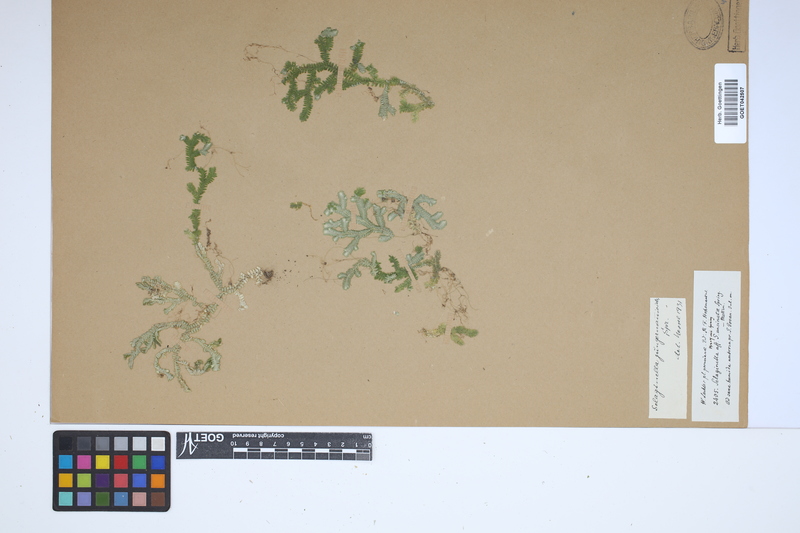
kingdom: Plantae
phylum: Tracheophyta
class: Lycopodiopsida
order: Selaginellales
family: Selaginellaceae
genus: Selaginella
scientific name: Selaginella jungermannioides
